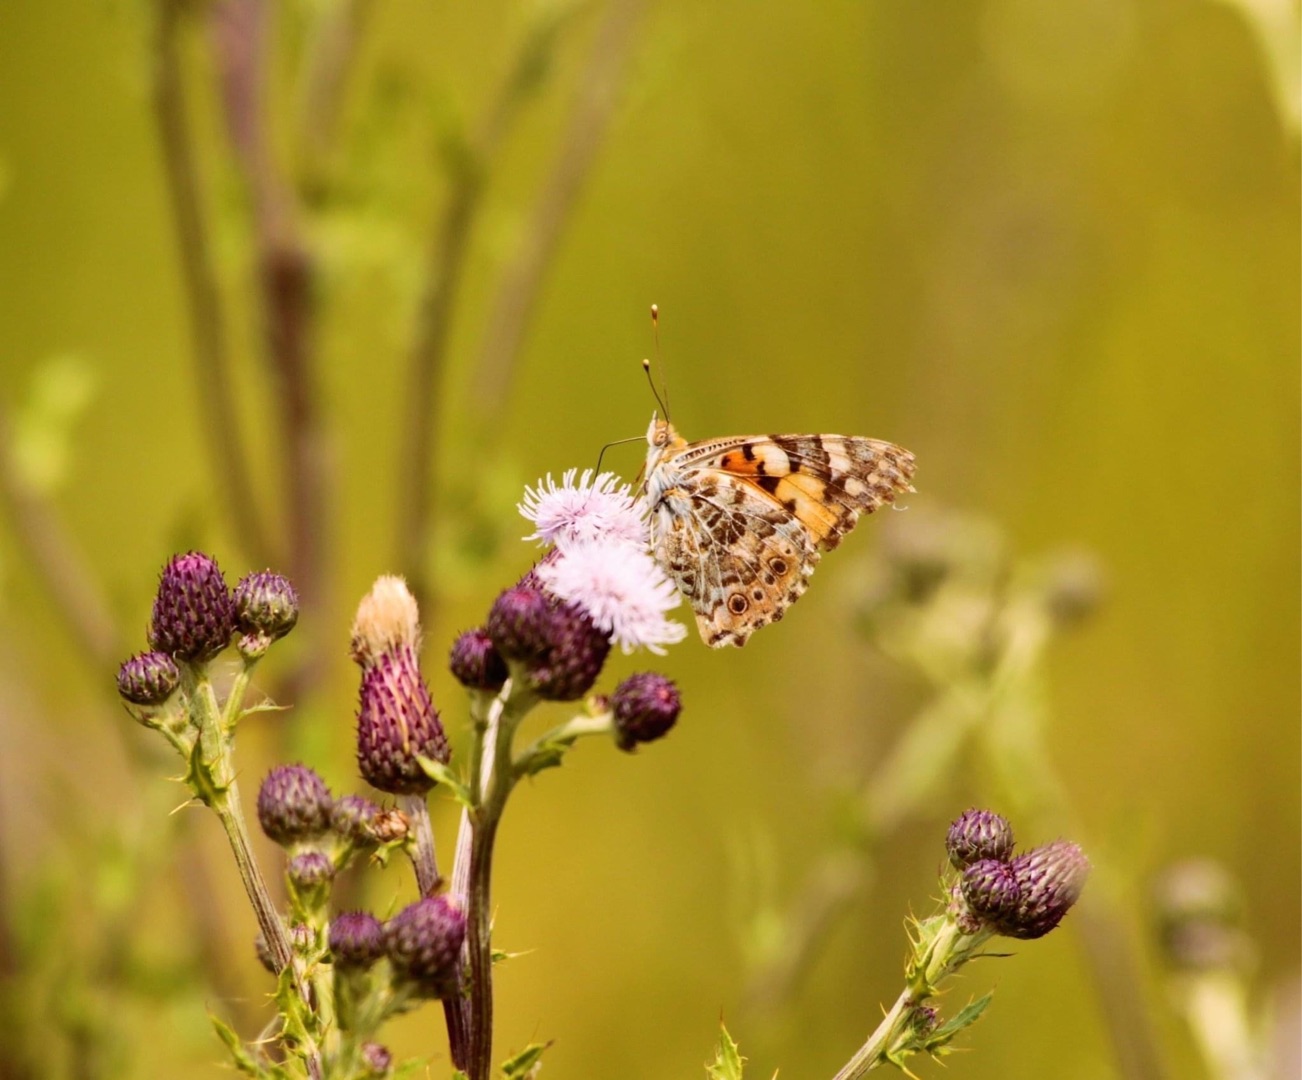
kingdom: Animalia
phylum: Arthropoda
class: Insecta
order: Lepidoptera
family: Nymphalidae
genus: Vanessa
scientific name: Vanessa cardui
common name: Tidselsommerfugl
